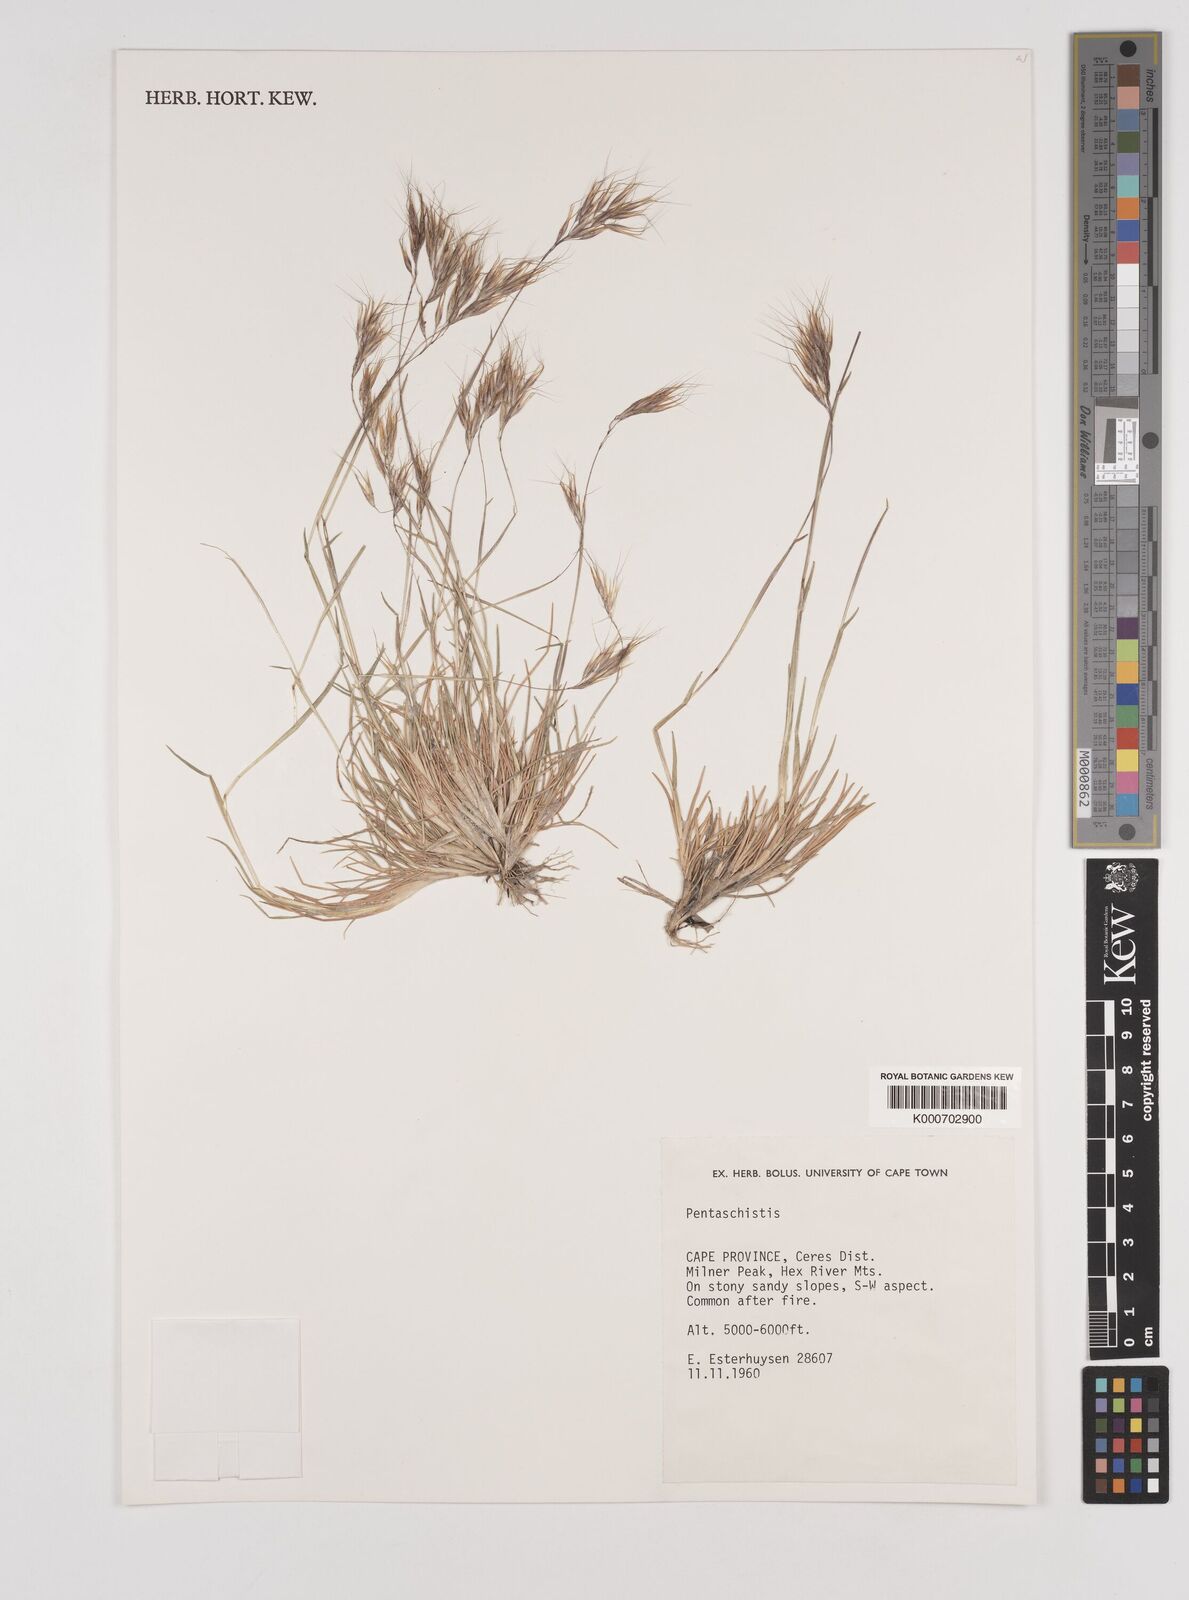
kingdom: Plantae
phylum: Tracheophyta
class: Liliopsida
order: Poales
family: Poaceae
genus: Pentameris
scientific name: Pentameris barbata
